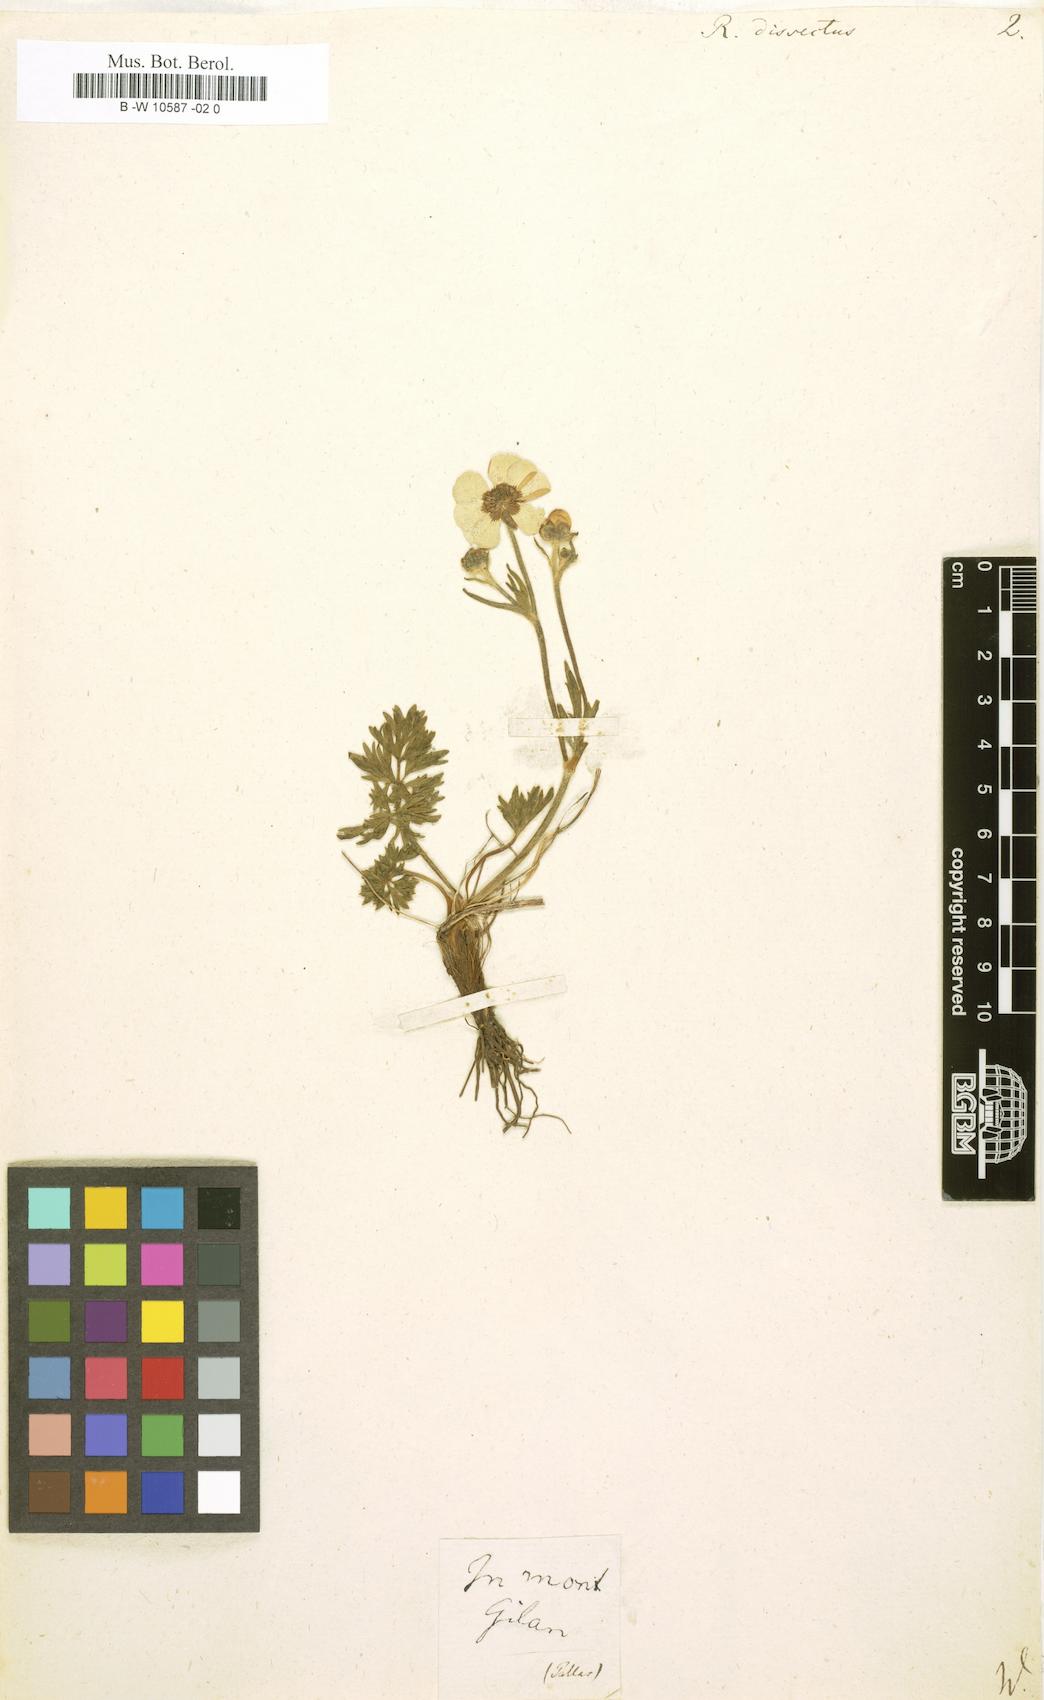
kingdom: Plantae
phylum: Tracheophyta
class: Magnoliopsida
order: Ranunculales
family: Ranunculaceae
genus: Ranunculus
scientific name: Ranunculus dissectus
